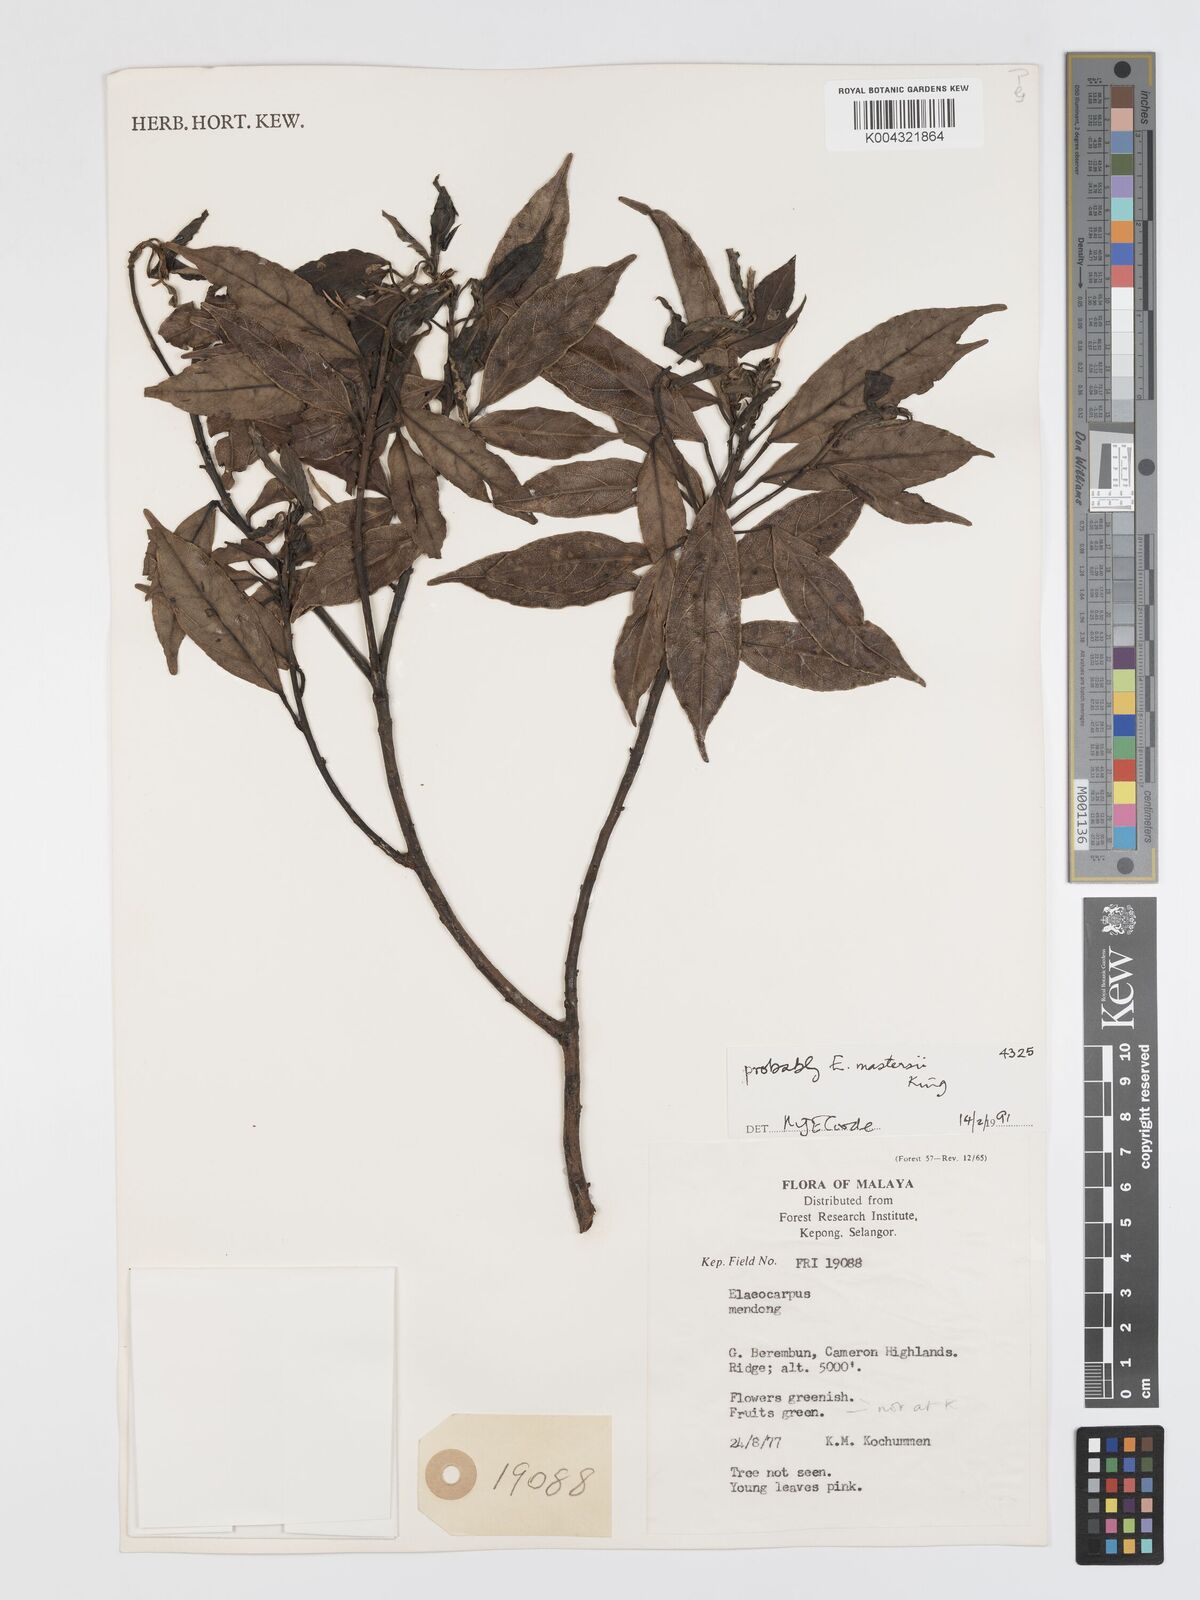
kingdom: Plantae
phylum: Tracheophyta
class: Magnoliopsida
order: Oxalidales
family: Elaeocarpaceae
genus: Elaeocarpus
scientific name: Elaeocarpus mastersii
